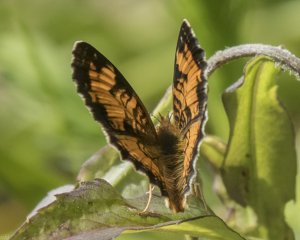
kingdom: Animalia
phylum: Arthropoda
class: Insecta
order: Lepidoptera
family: Nymphalidae
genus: Phyciodes
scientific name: Phyciodes tharos
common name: Northern Crescent
